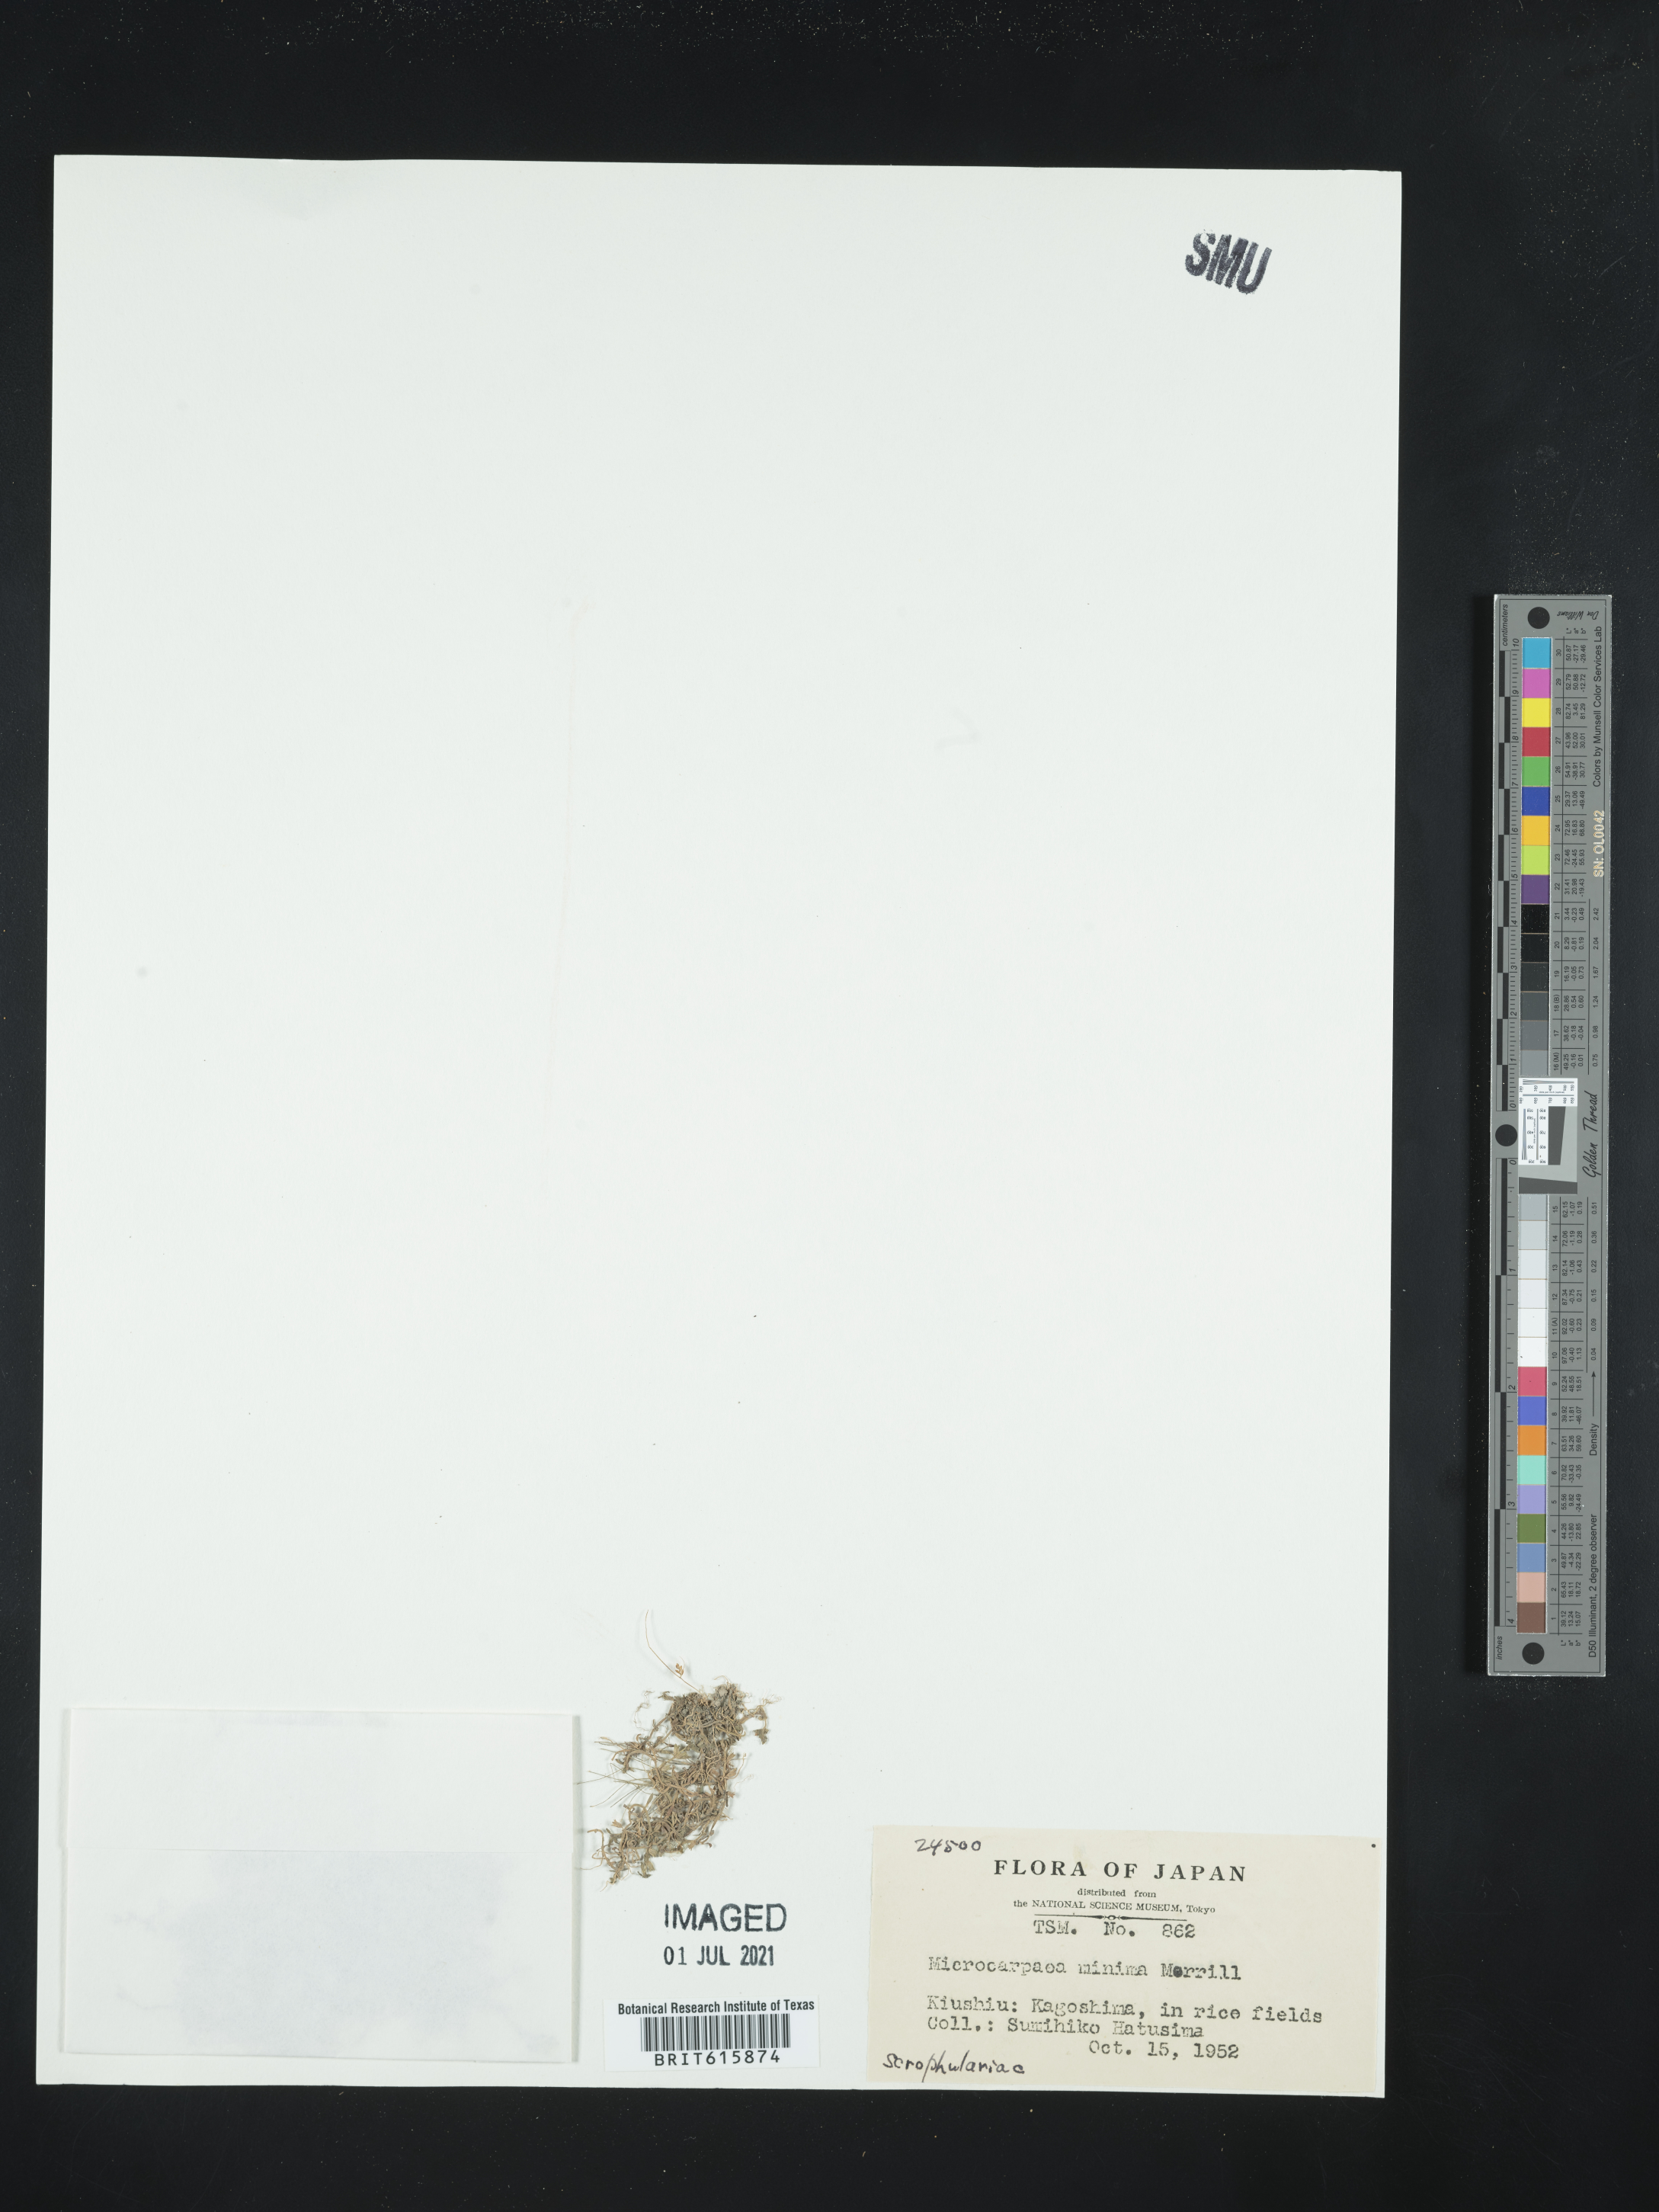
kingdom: Plantae
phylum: Tracheophyta
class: Magnoliopsida
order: Lamiales
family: Phrymaceae
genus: Microcarpaea
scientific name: Microcarpaea minima
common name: Chickweed sparrow
